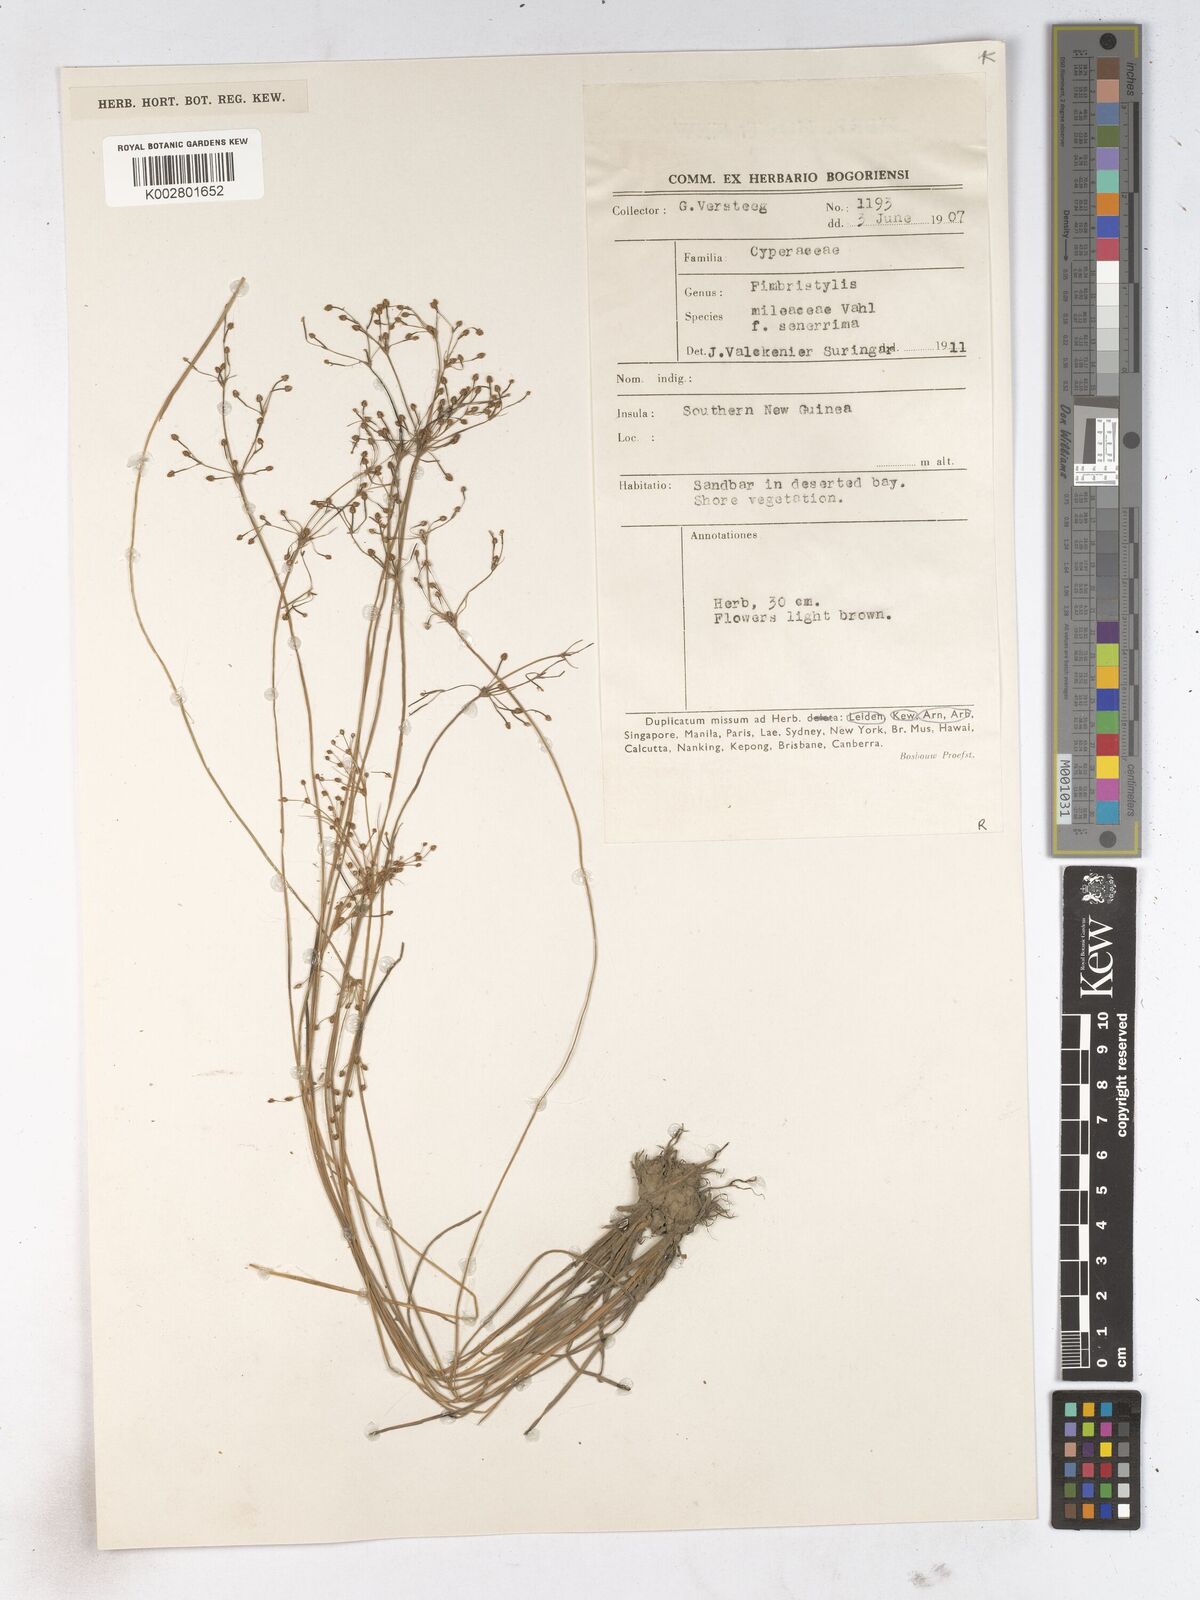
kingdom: Plantae
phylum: Tracheophyta
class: Liliopsida
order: Poales
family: Cyperaceae
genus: Fimbristylis
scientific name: Fimbristylis littoralis
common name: Fimbry
